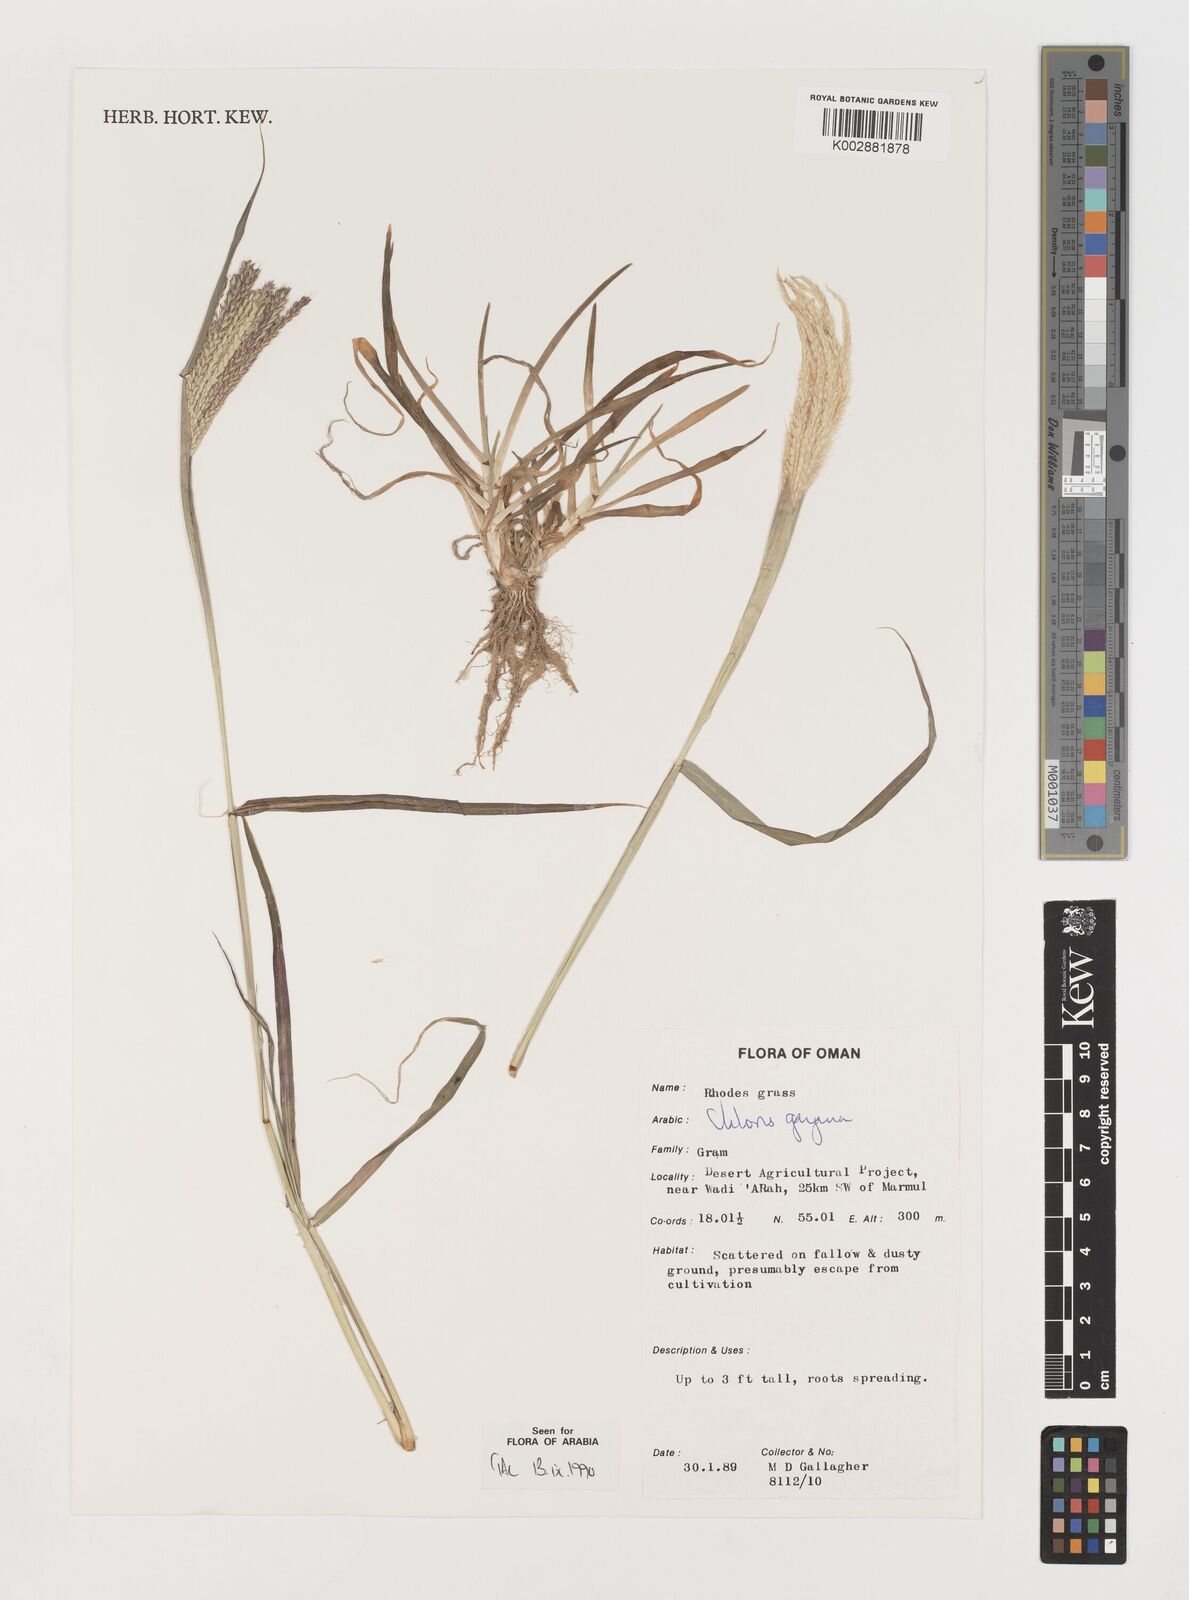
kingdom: Plantae
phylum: Tracheophyta
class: Liliopsida
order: Poales
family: Poaceae
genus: Chloris
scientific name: Chloris gayana
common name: Rhodes grass
